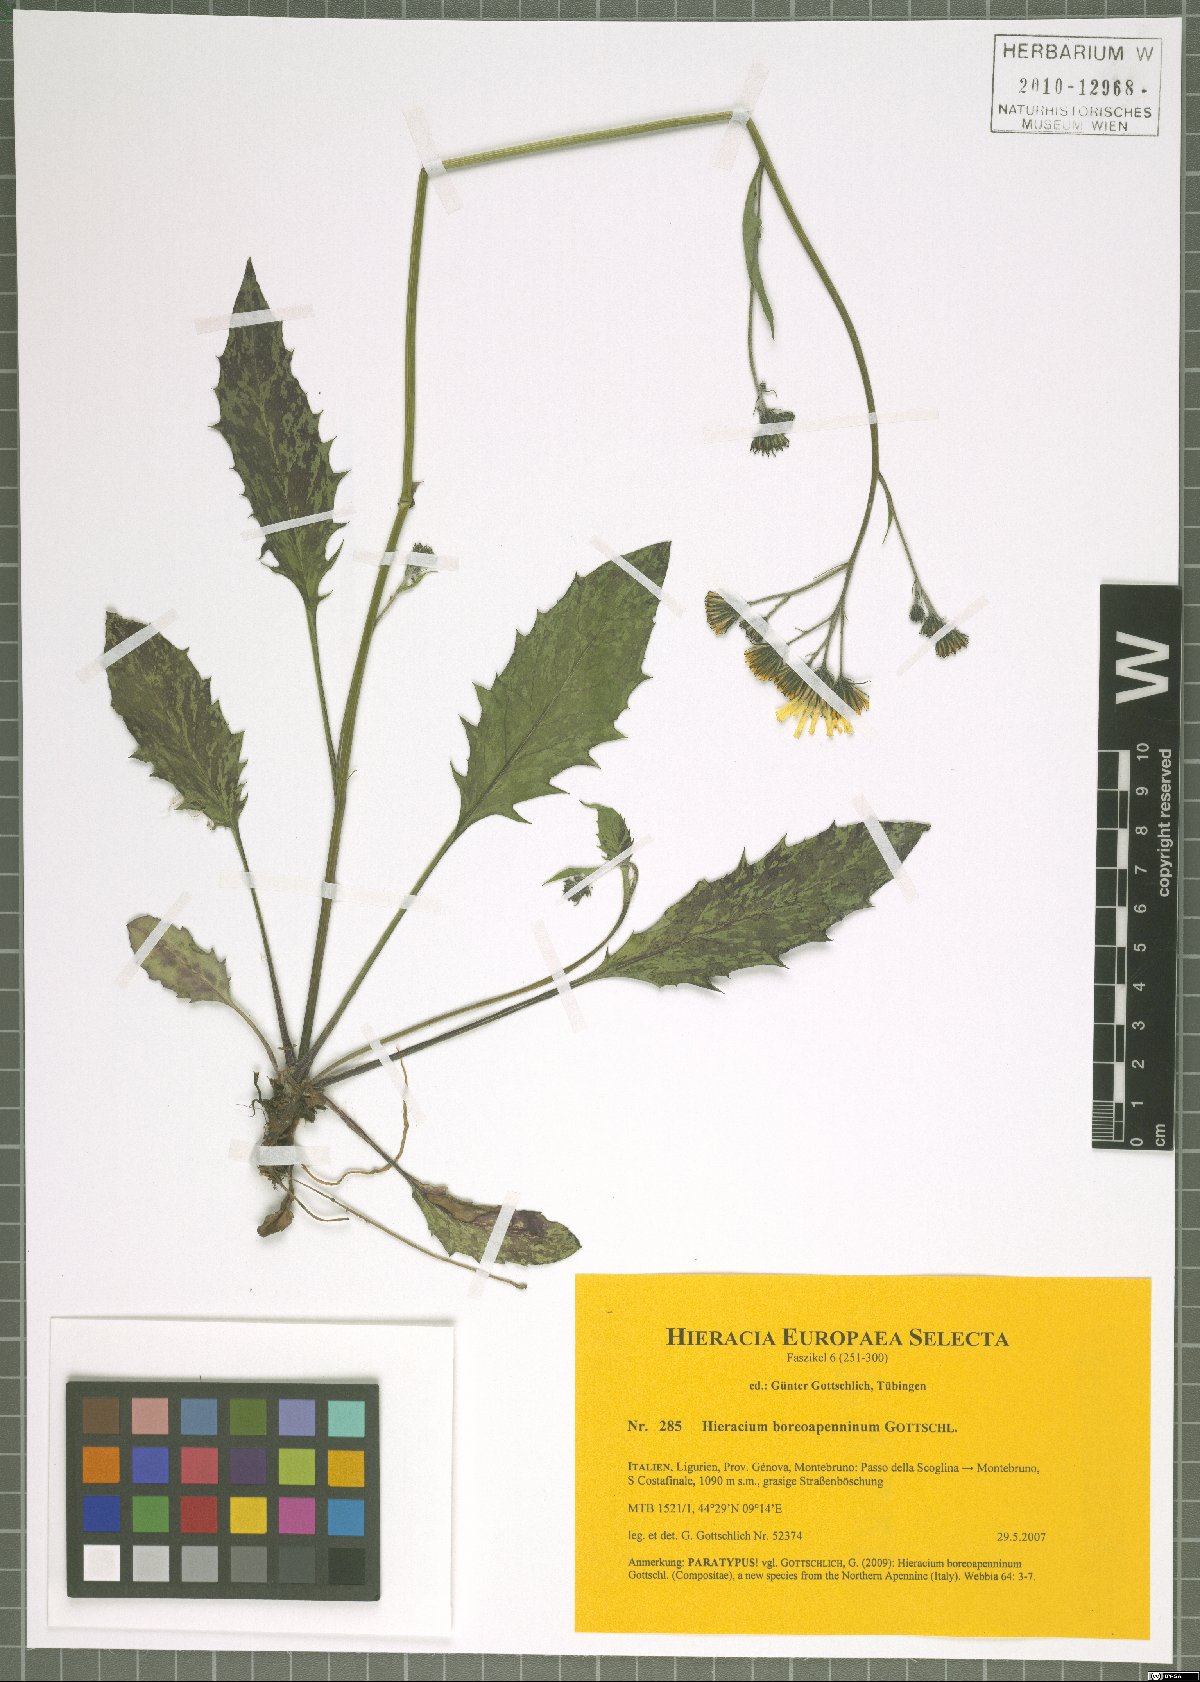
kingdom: Plantae
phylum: Tracheophyta
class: Magnoliopsida
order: Asterales
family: Asteraceae
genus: Hieracium
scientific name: Hieracium boreoapenninum
